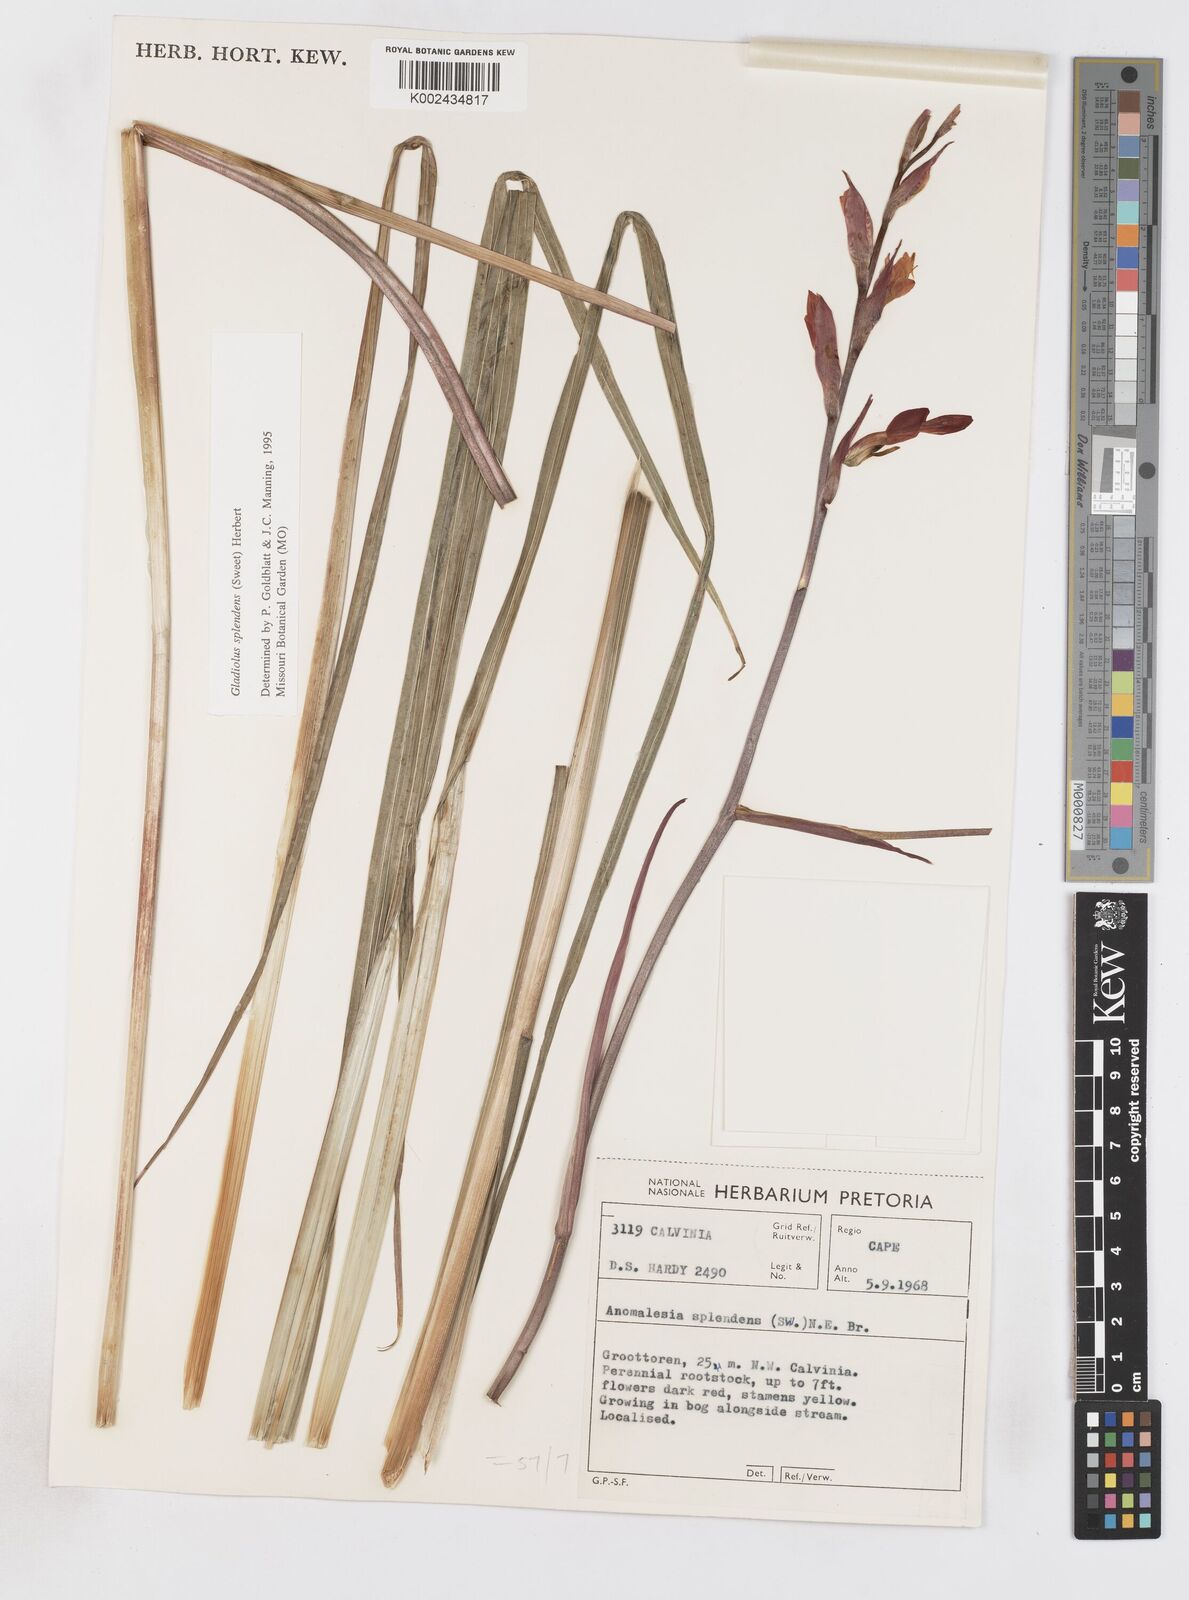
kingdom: Plantae
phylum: Tracheophyta
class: Liliopsida
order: Asparagales
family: Iridaceae
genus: Gladiolus
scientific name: Gladiolus splendens
